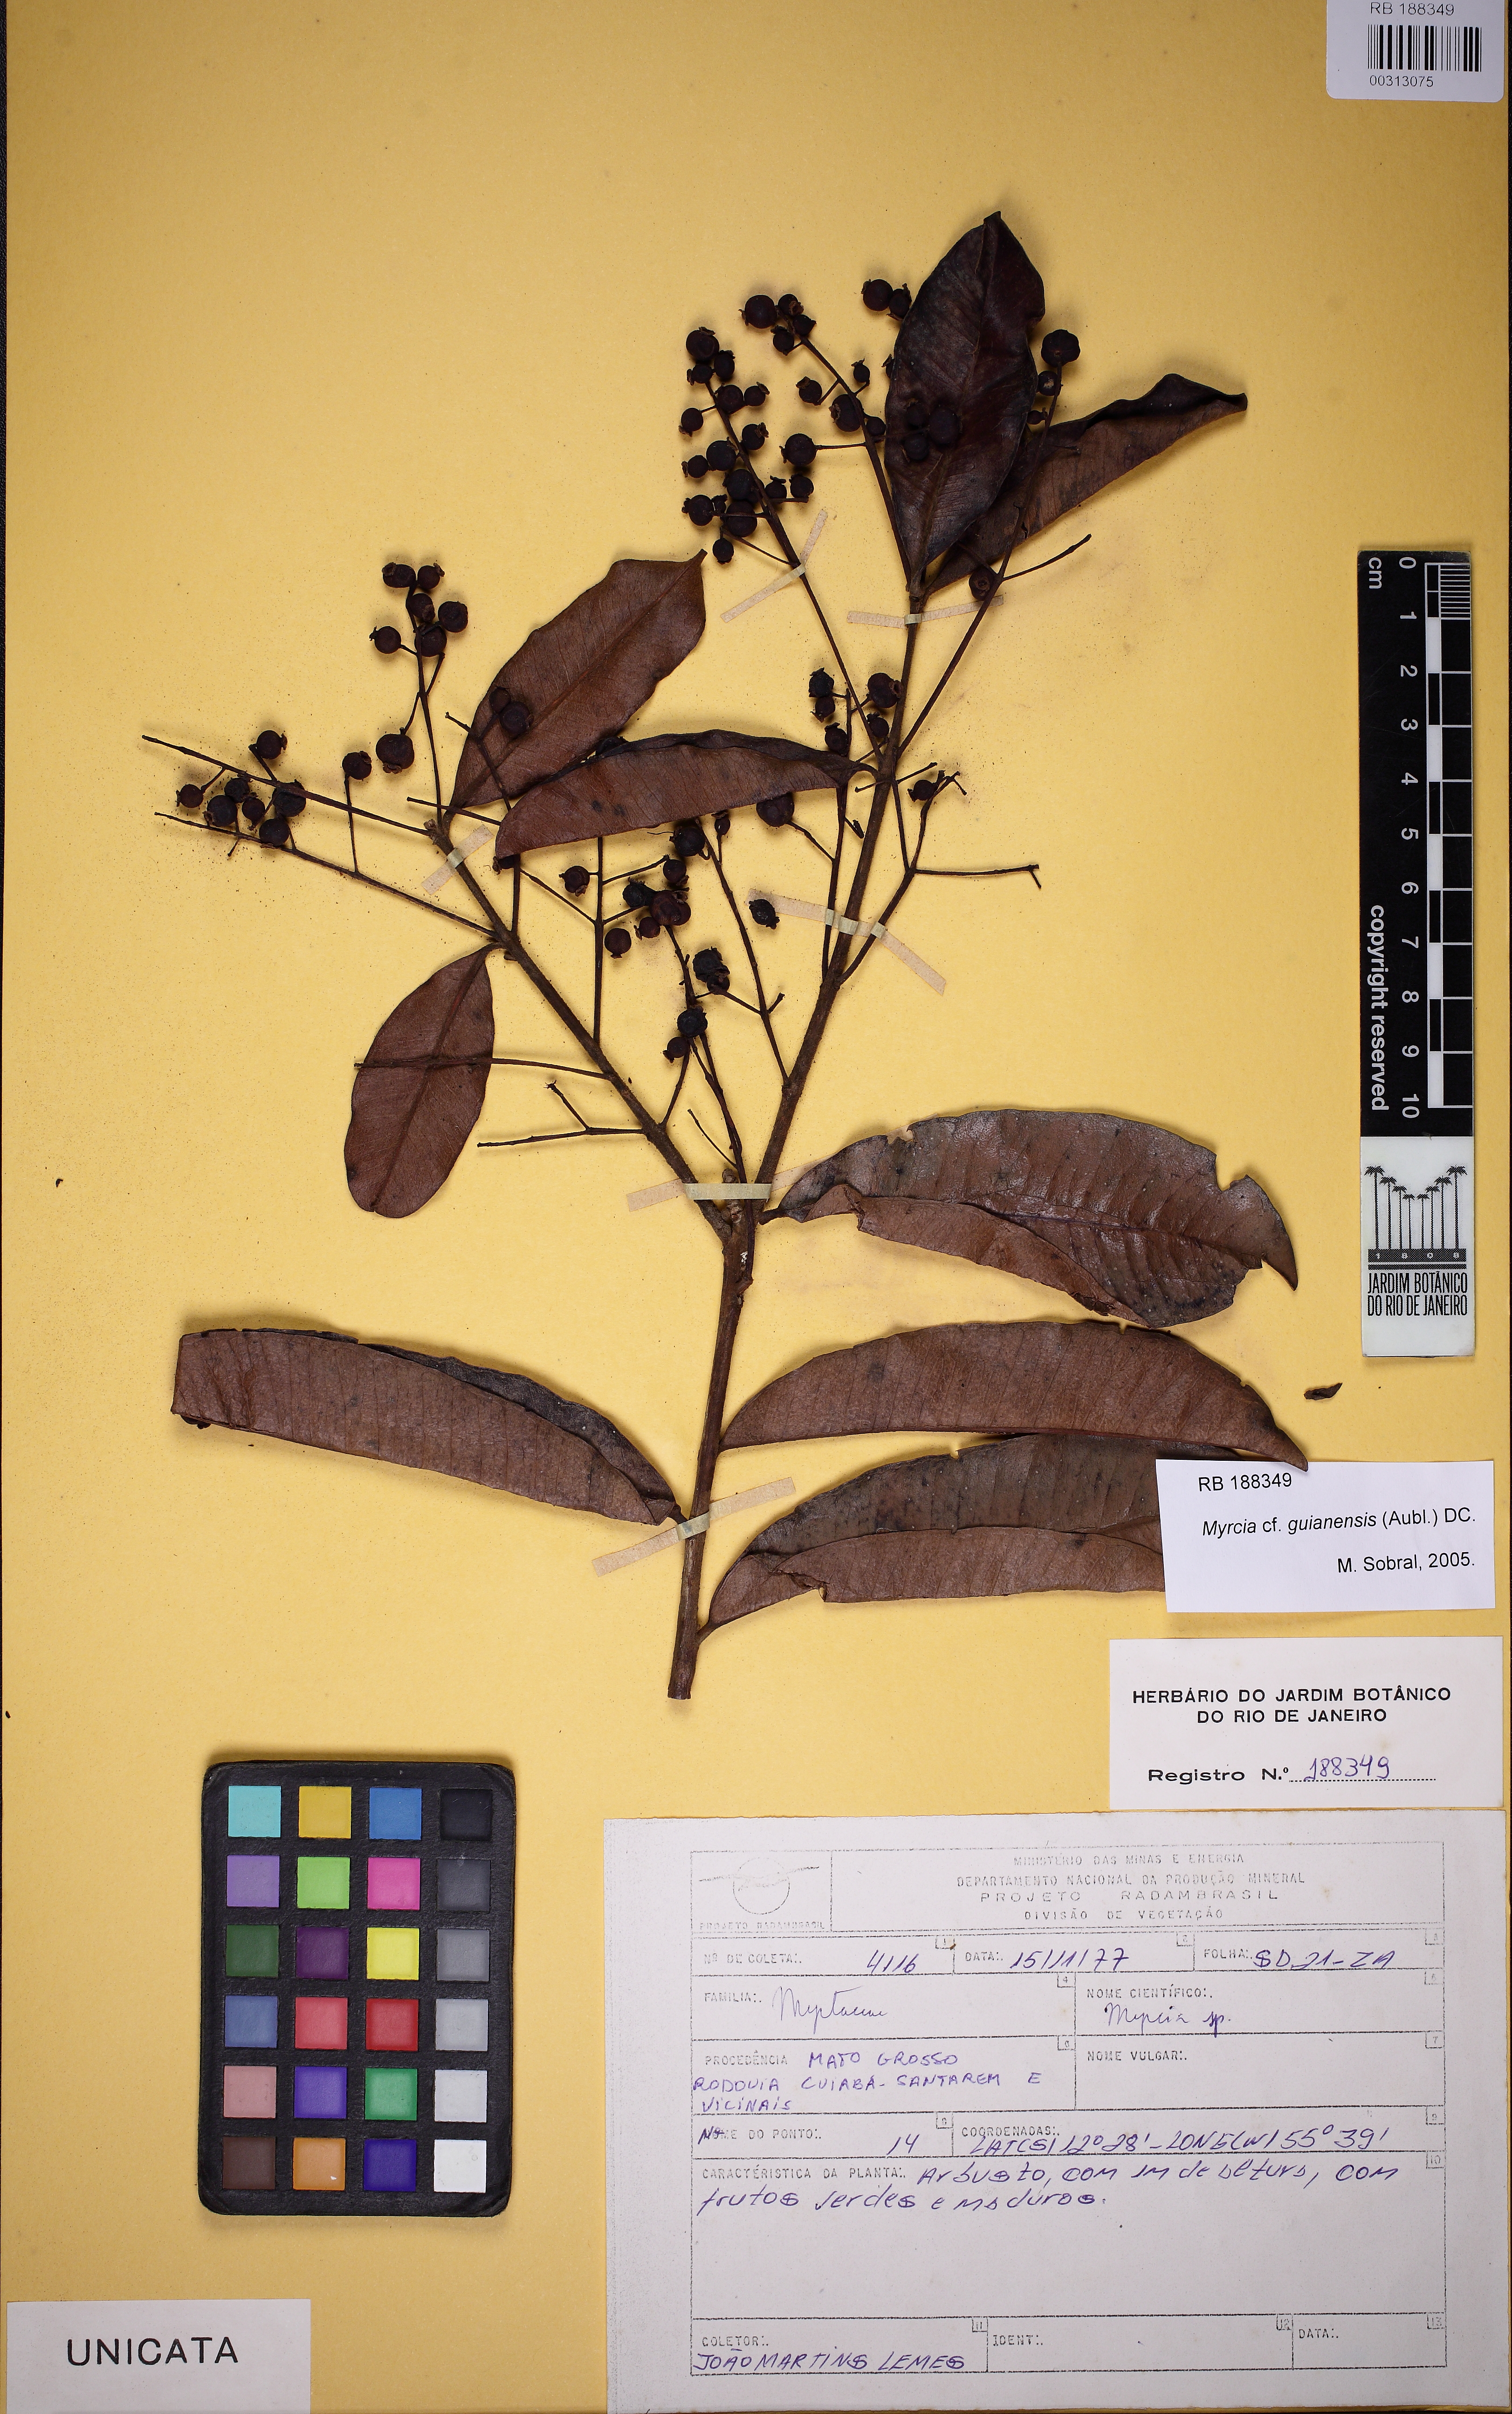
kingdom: Plantae
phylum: Tracheophyta
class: Magnoliopsida
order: Myrtales
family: Myrtaceae
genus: Myrcia
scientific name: Myrcia guianensis
